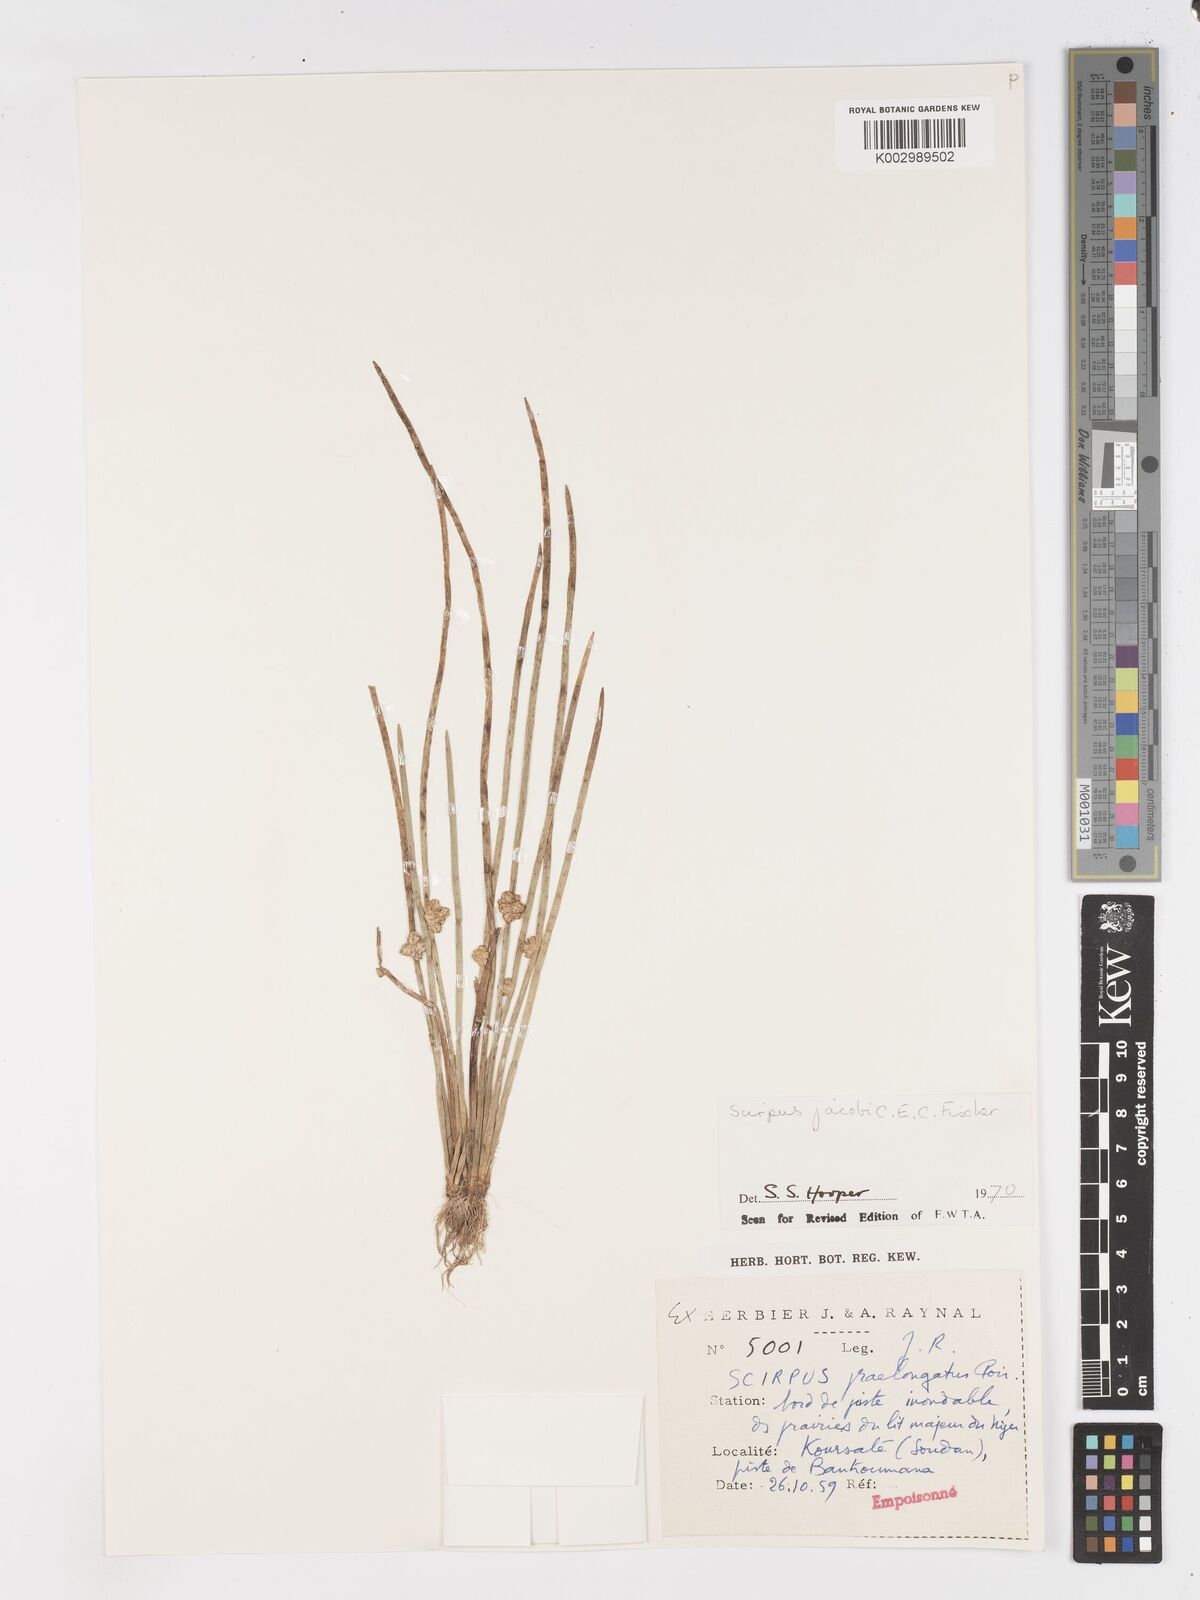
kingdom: Plantae
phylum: Tracheophyta
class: Liliopsida
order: Poales
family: Cyperaceae
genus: Schoenoplectiella
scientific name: Schoenoplectiella senegalensis
